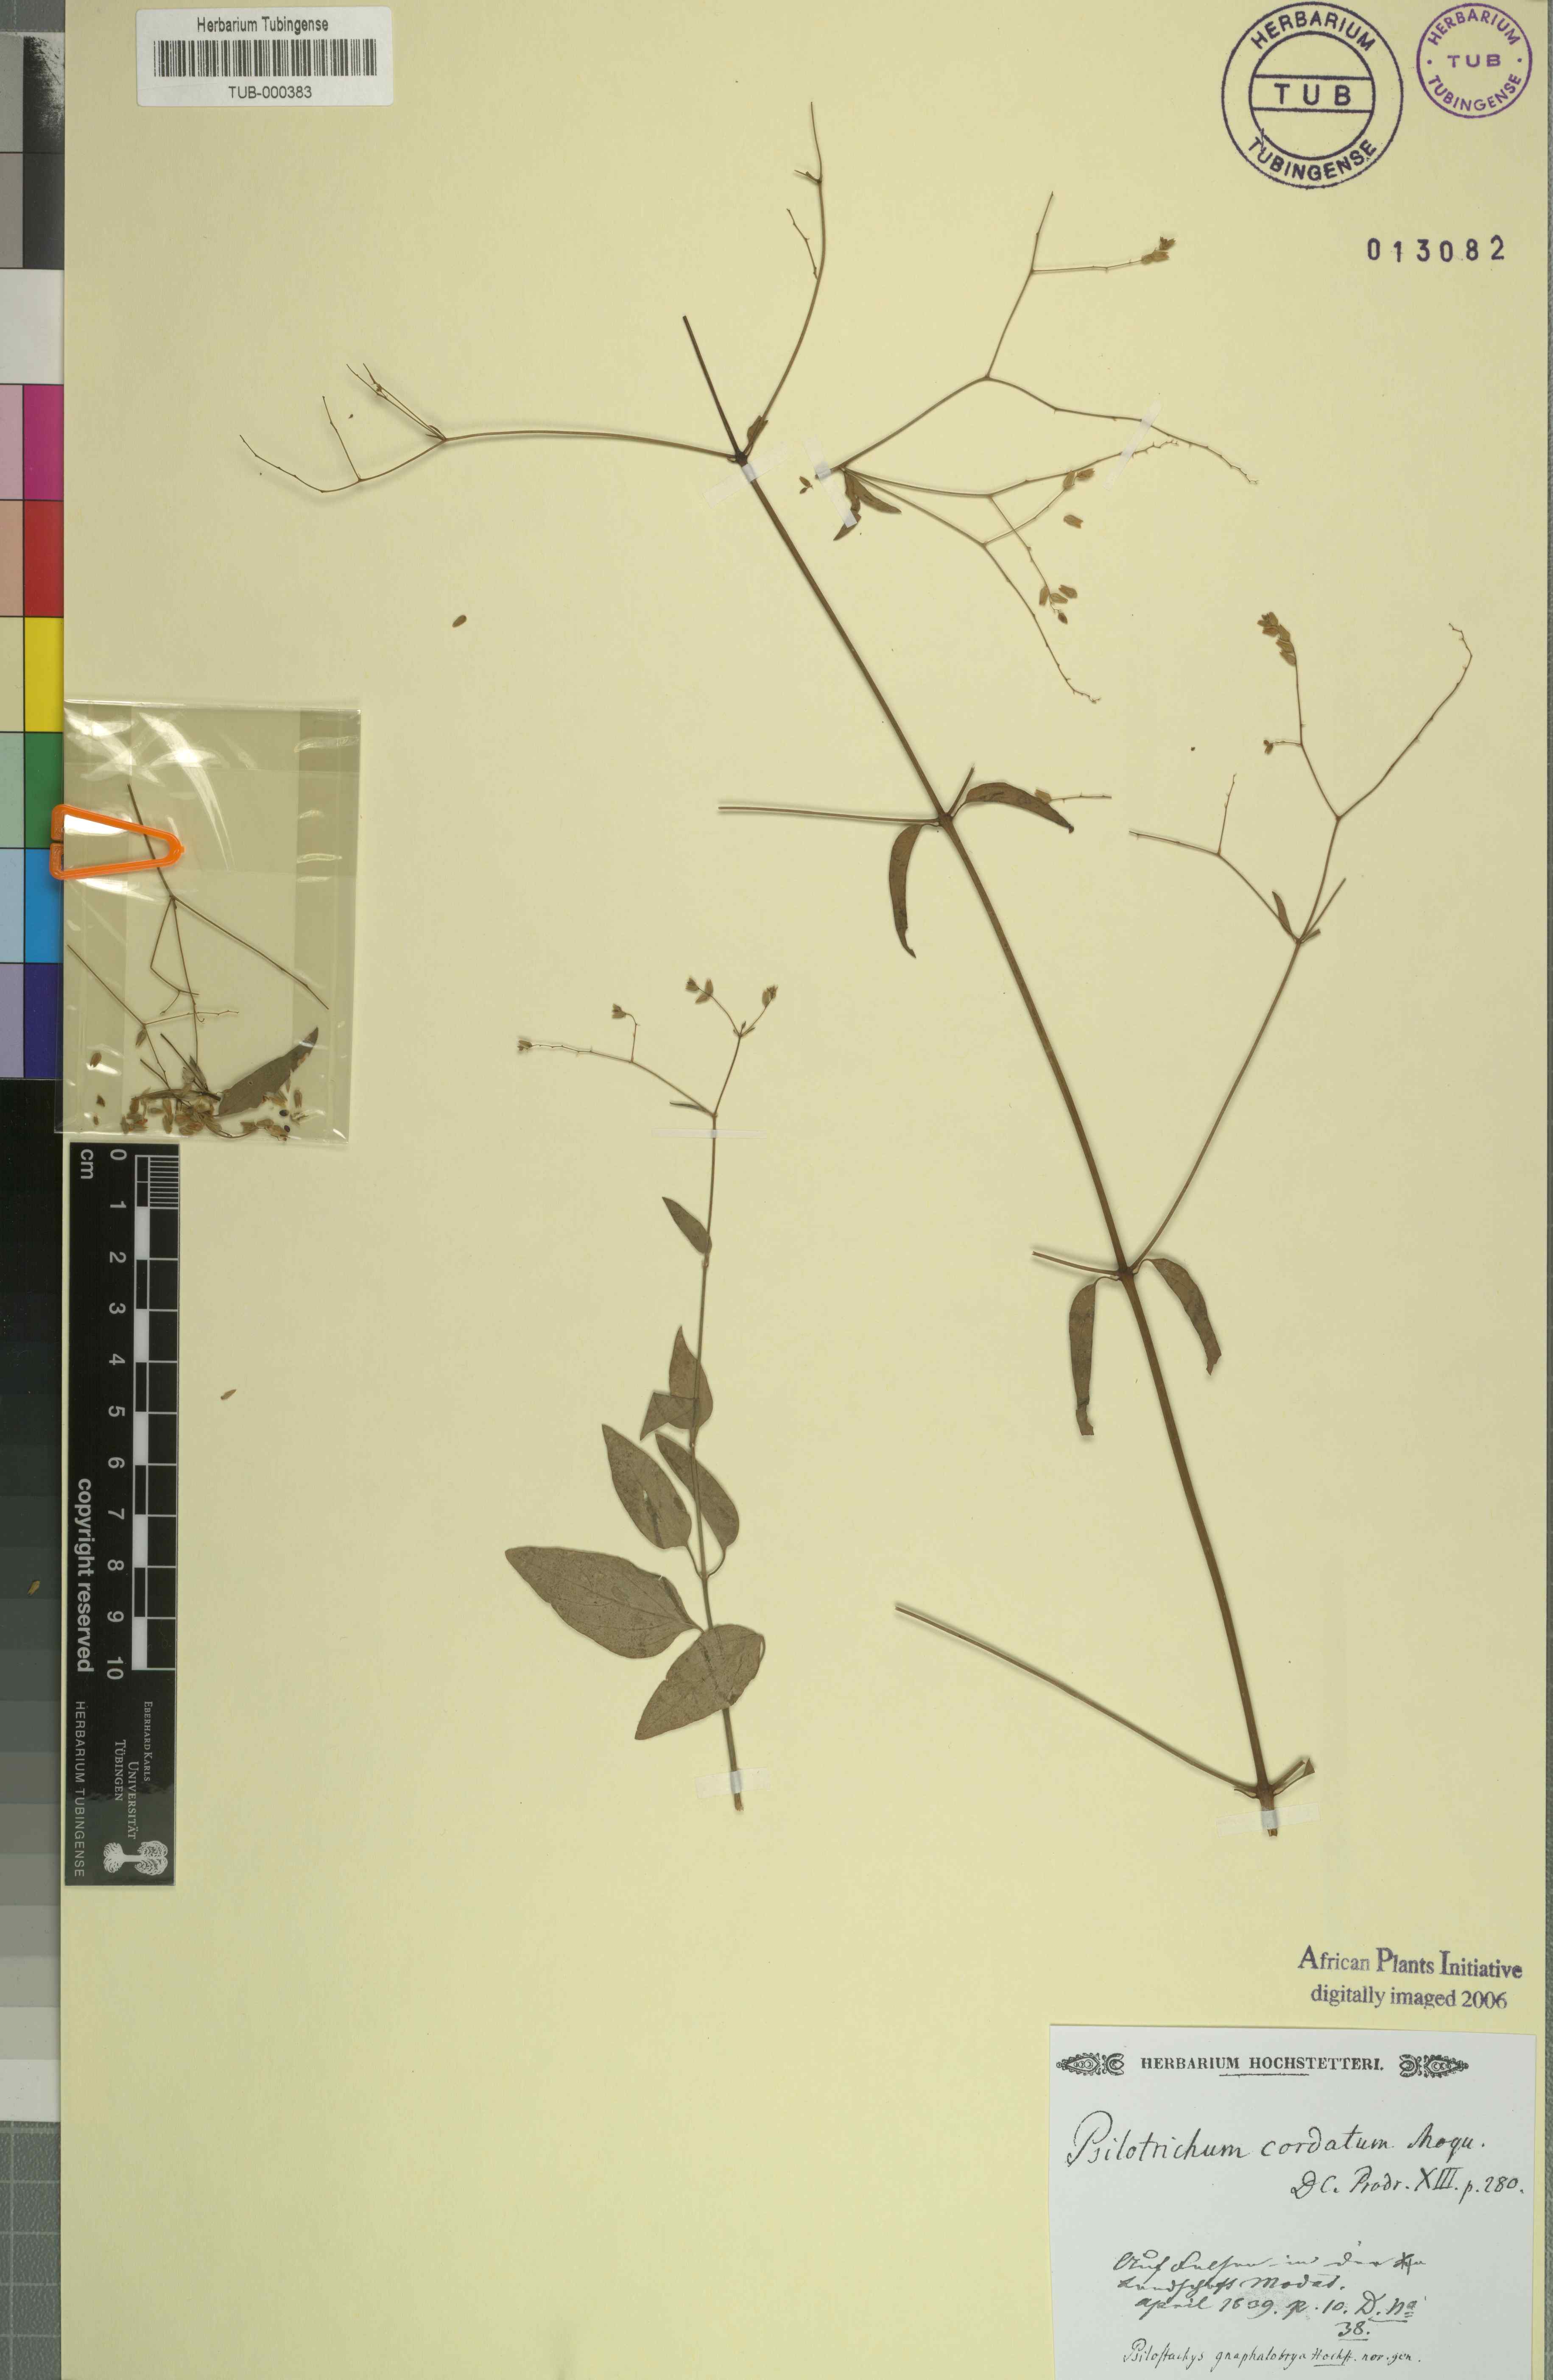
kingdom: Plantae
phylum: Tracheophyta
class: Magnoliopsida
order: Caryophyllales
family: Amaranthaceae
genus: Psilotrichum
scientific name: Psilotrichum gnaphalobryum
